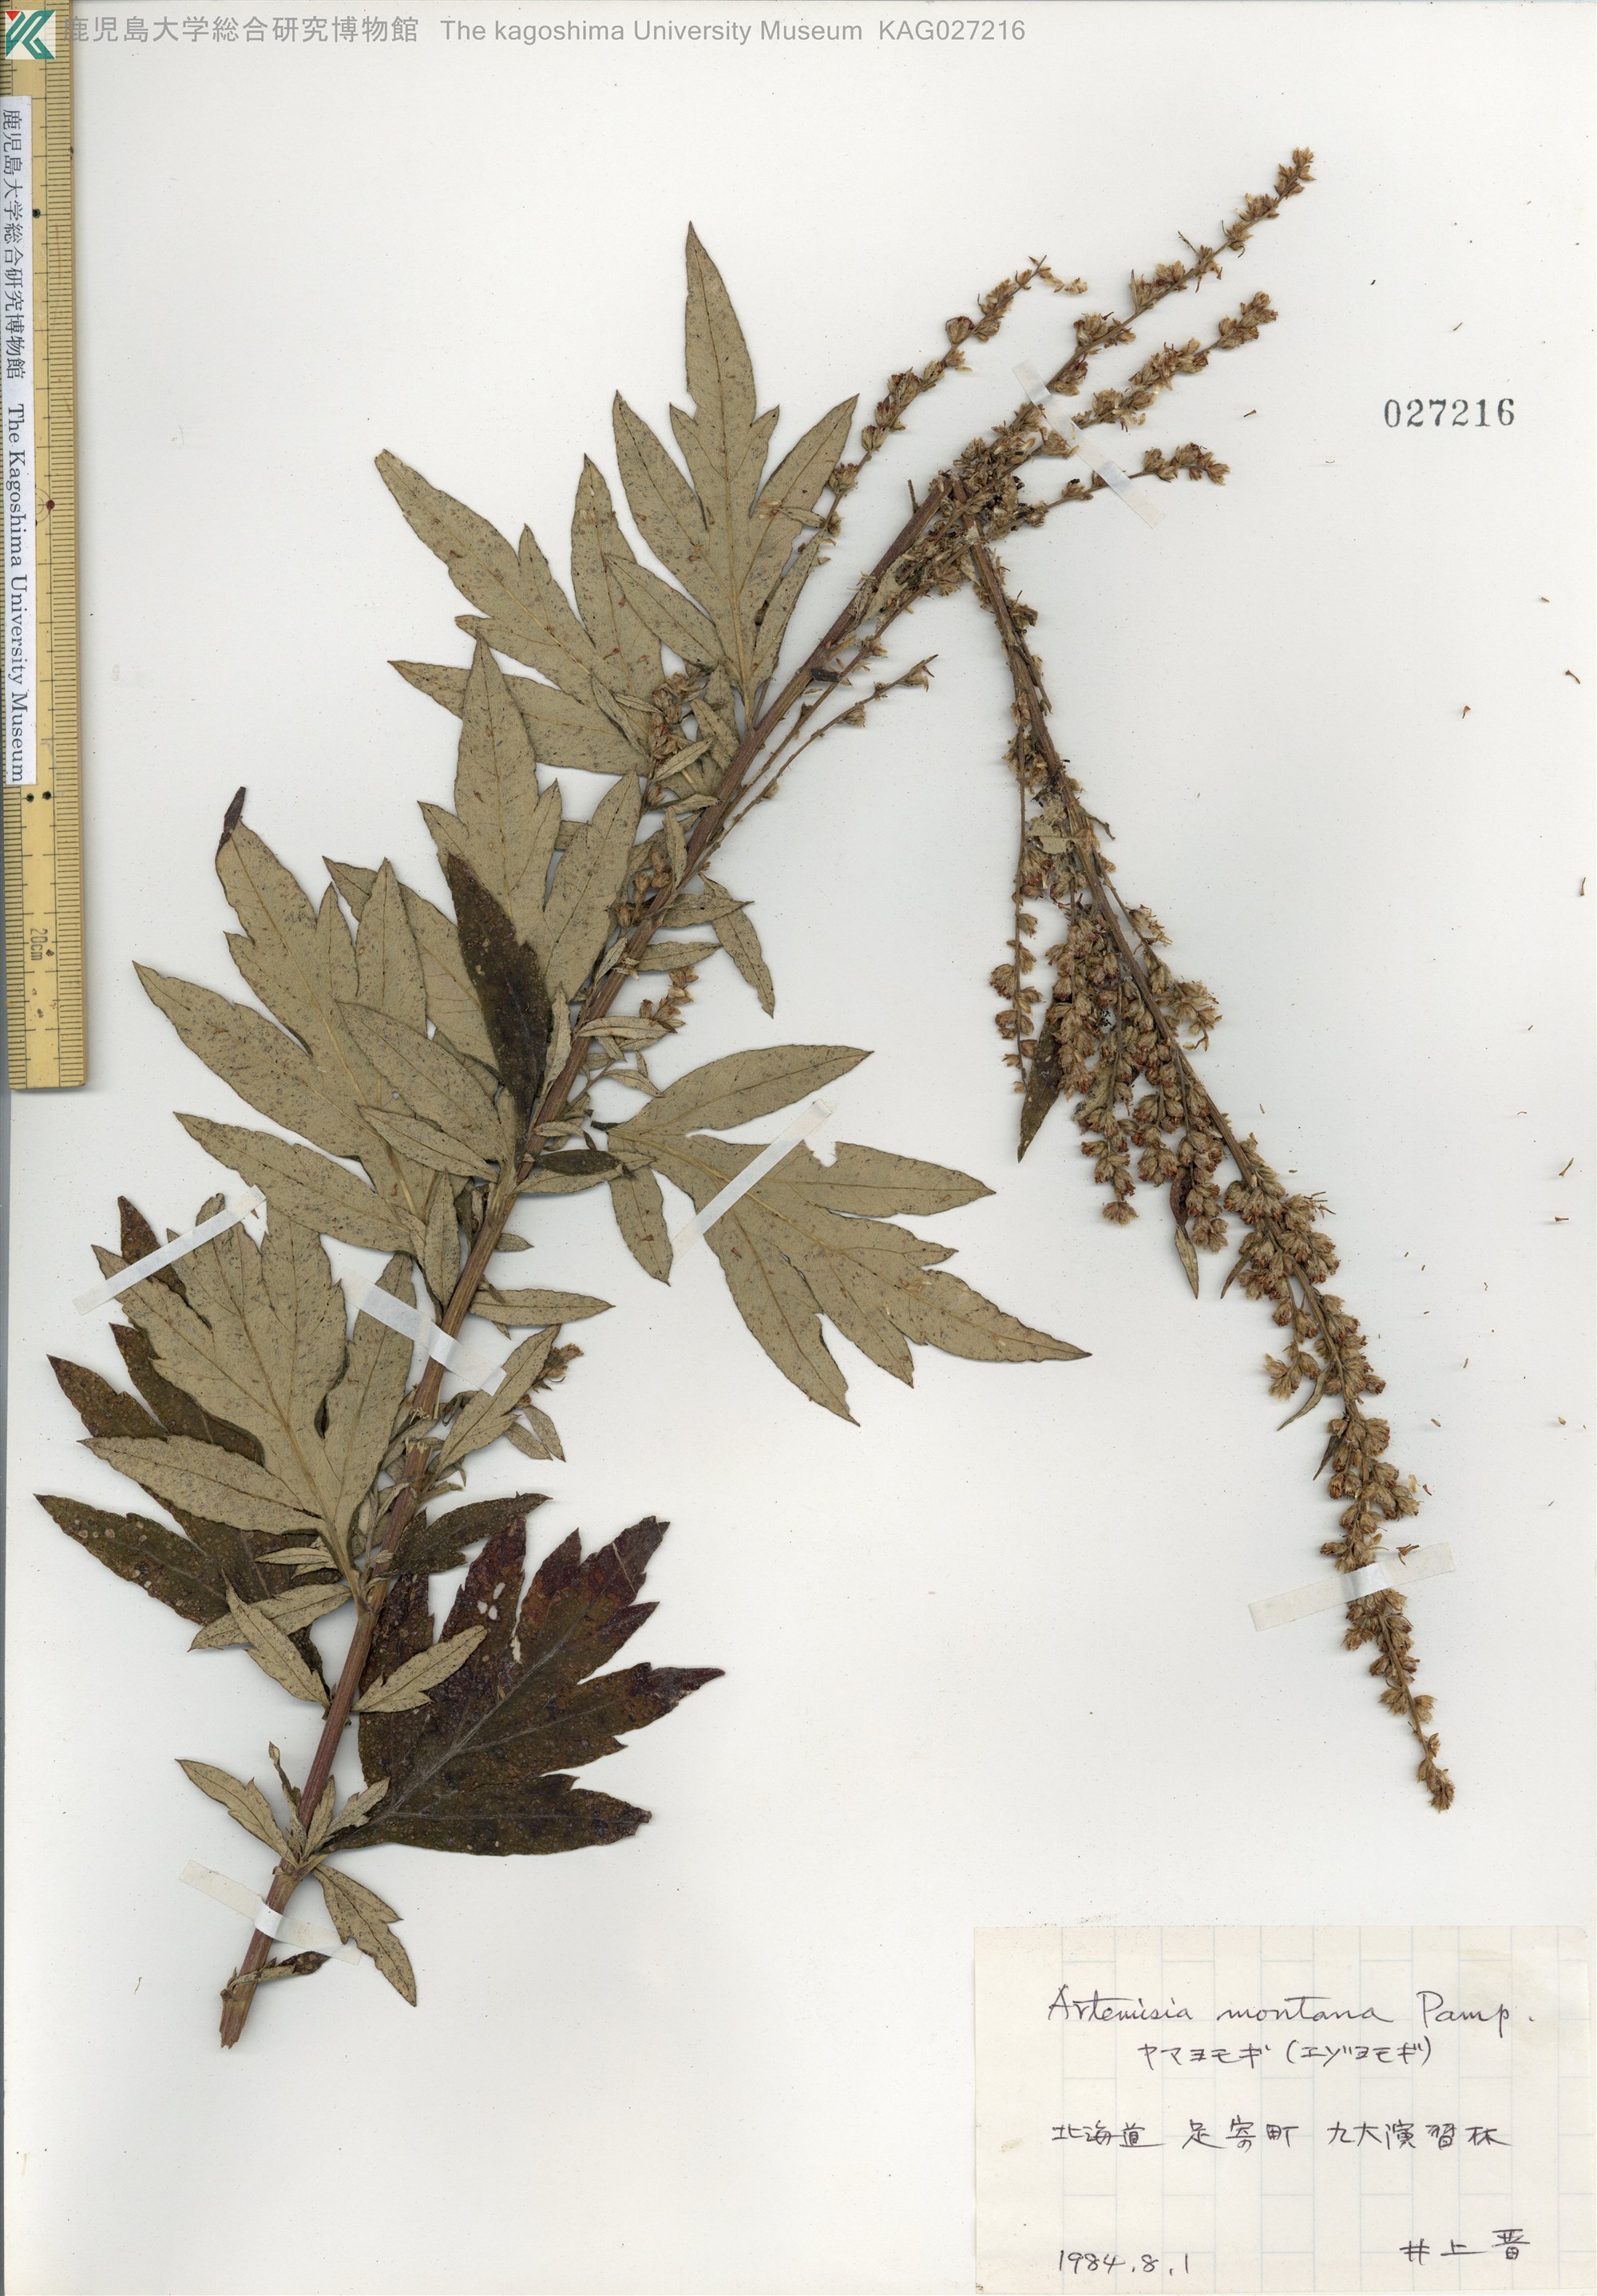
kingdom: Plantae
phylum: Tracheophyta
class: Magnoliopsida
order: Asterales
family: Asteraceae
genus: Artemisia
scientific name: Artemisia montana
